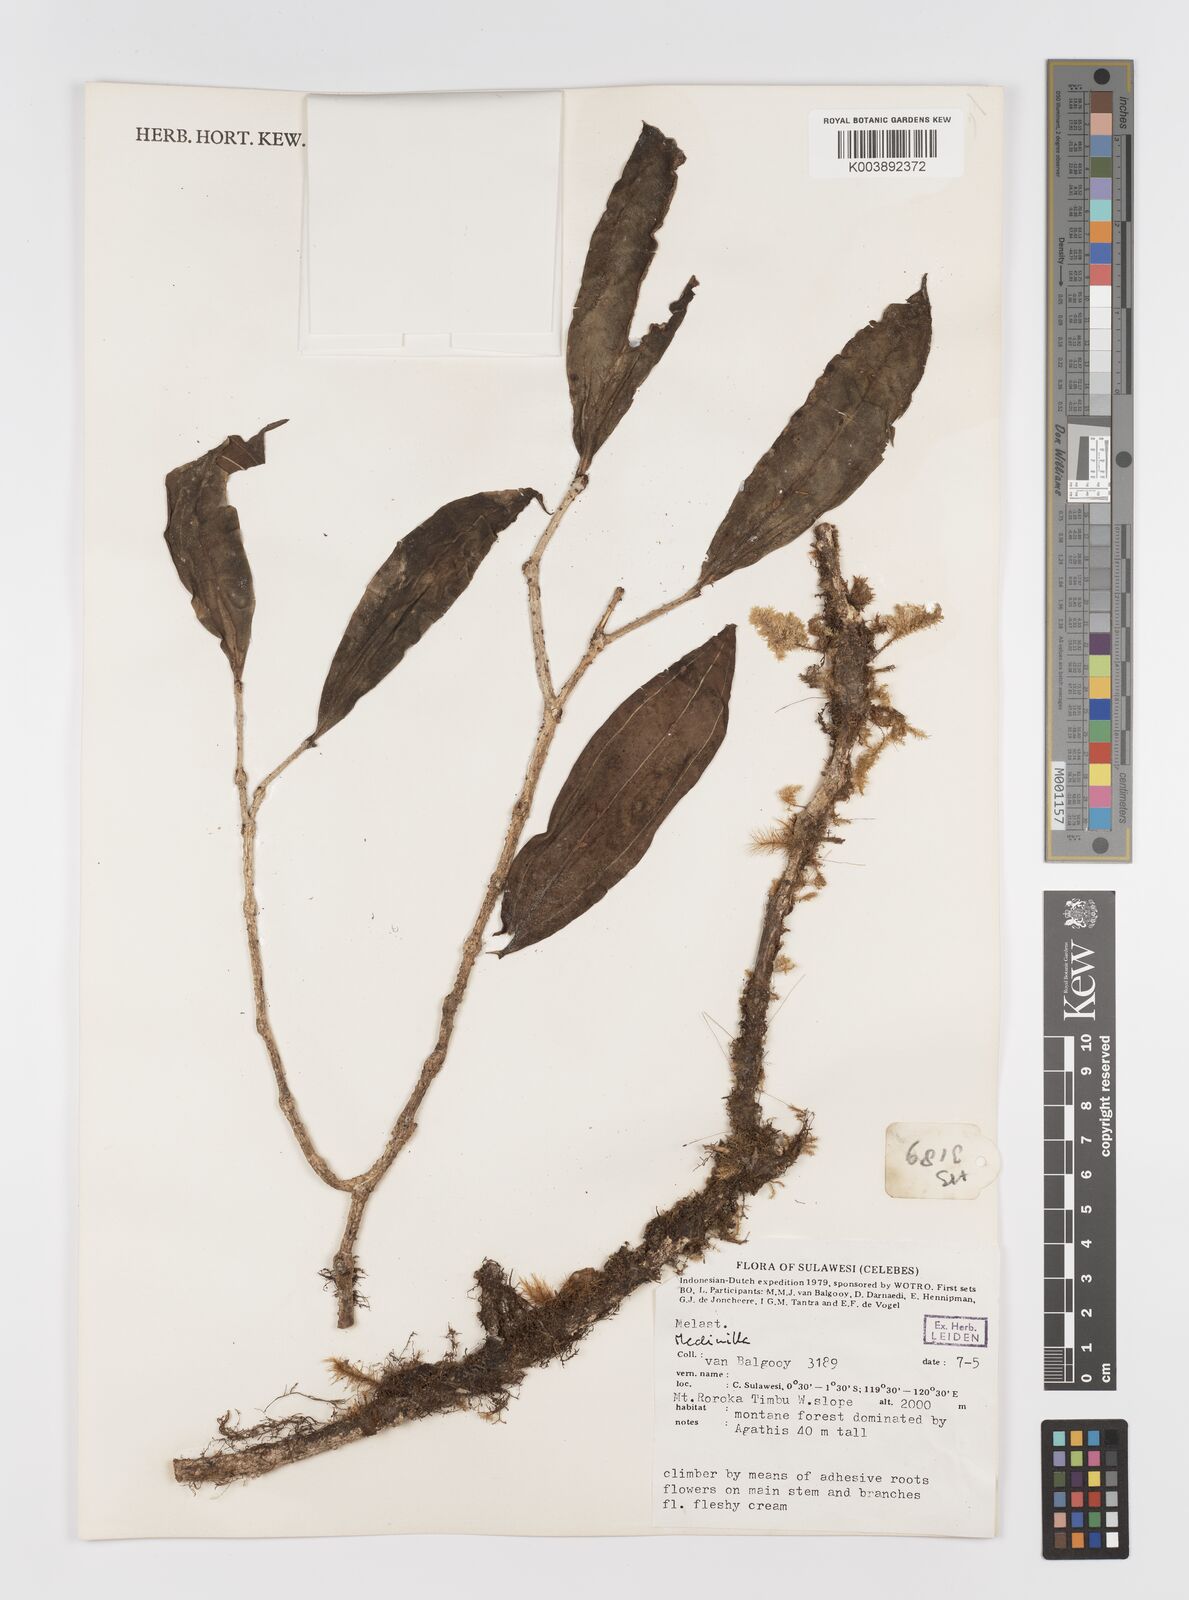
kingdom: Plantae
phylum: Tracheophyta
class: Magnoliopsida
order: Myrtales
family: Melastomataceae
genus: Medinilla
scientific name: Medinilla
